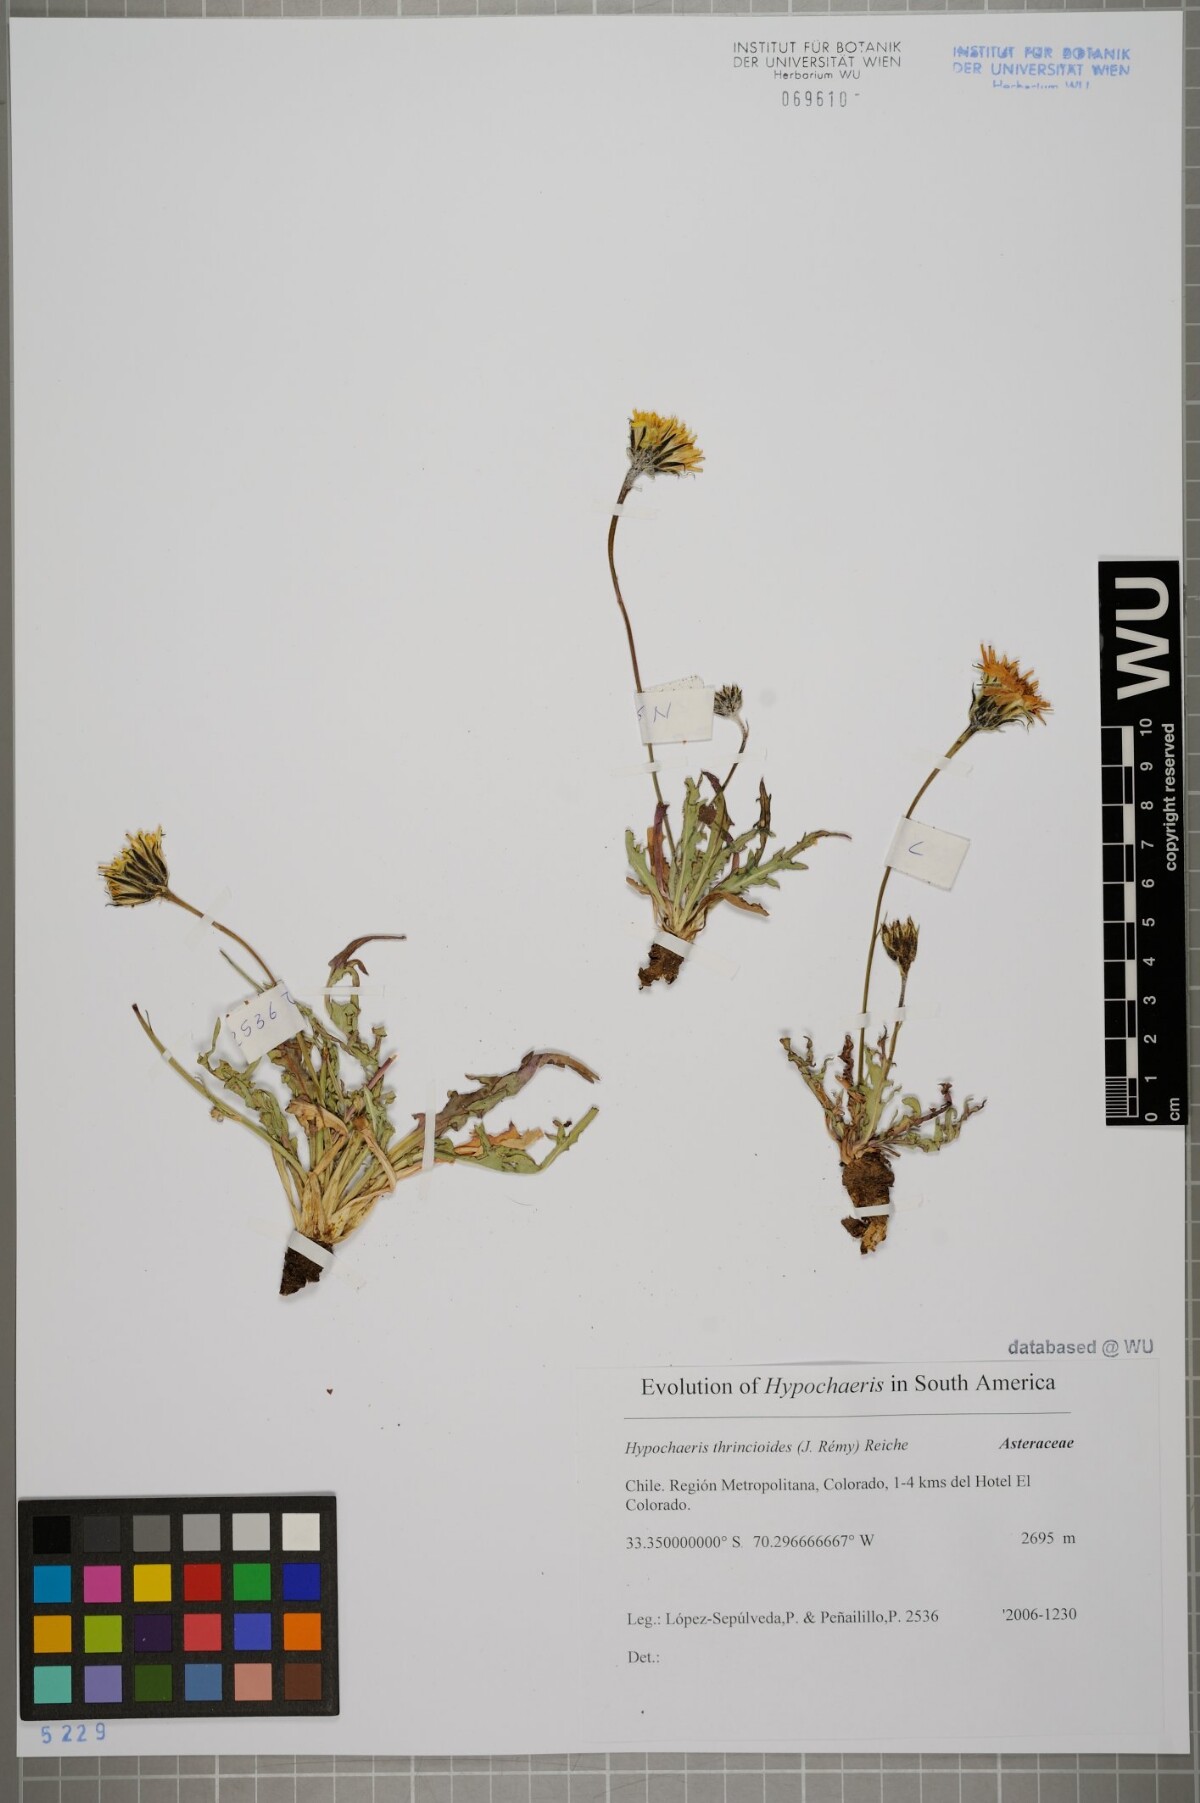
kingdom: Plantae
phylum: Tracheophyta
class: Magnoliopsida
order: Asterales
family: Asteraceae
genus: Hypochaeris
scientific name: Hypochaeris apargioides
